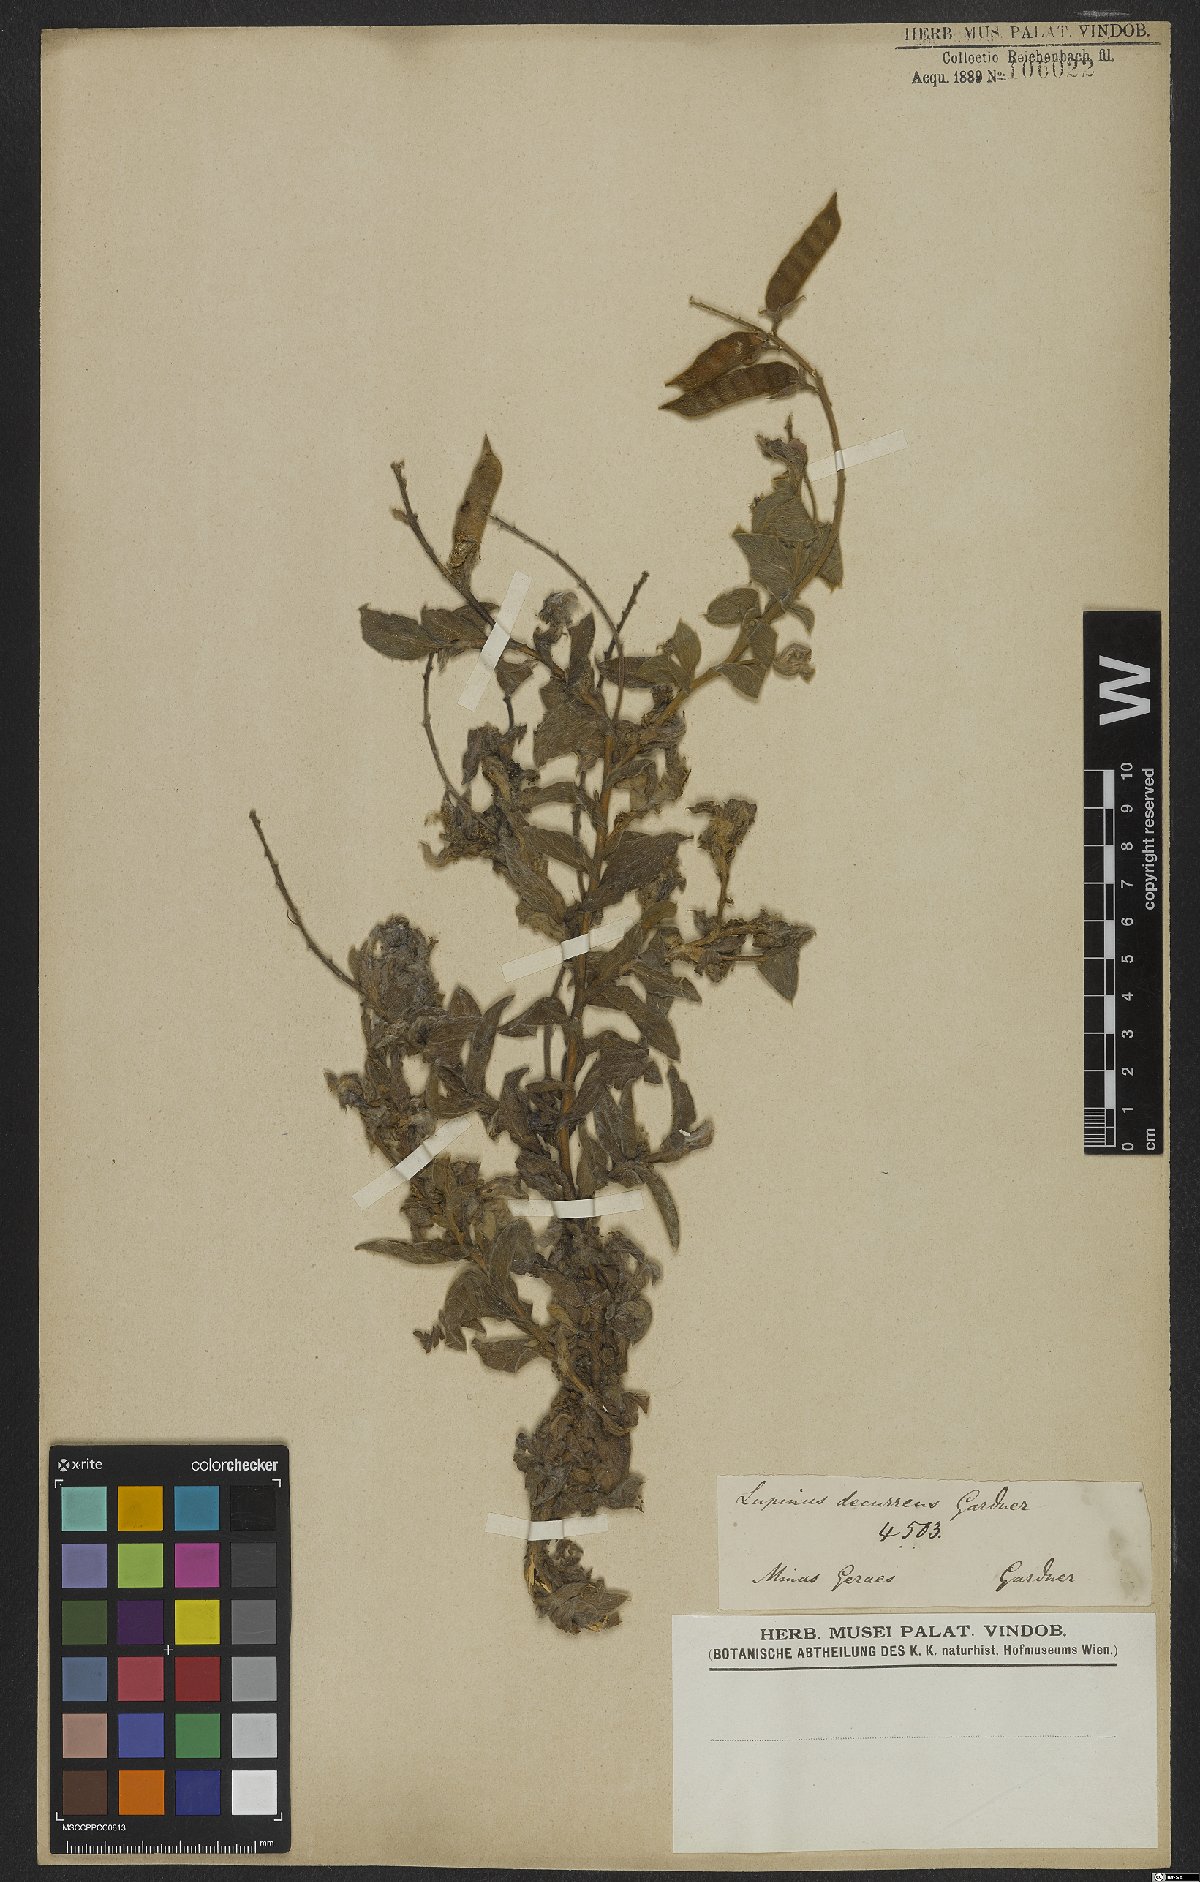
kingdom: Plantae
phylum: Tracheophyta
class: Magnoliopsida
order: Fabales
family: Fabaceae
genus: Lupinus
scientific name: Lupinus decurrens
